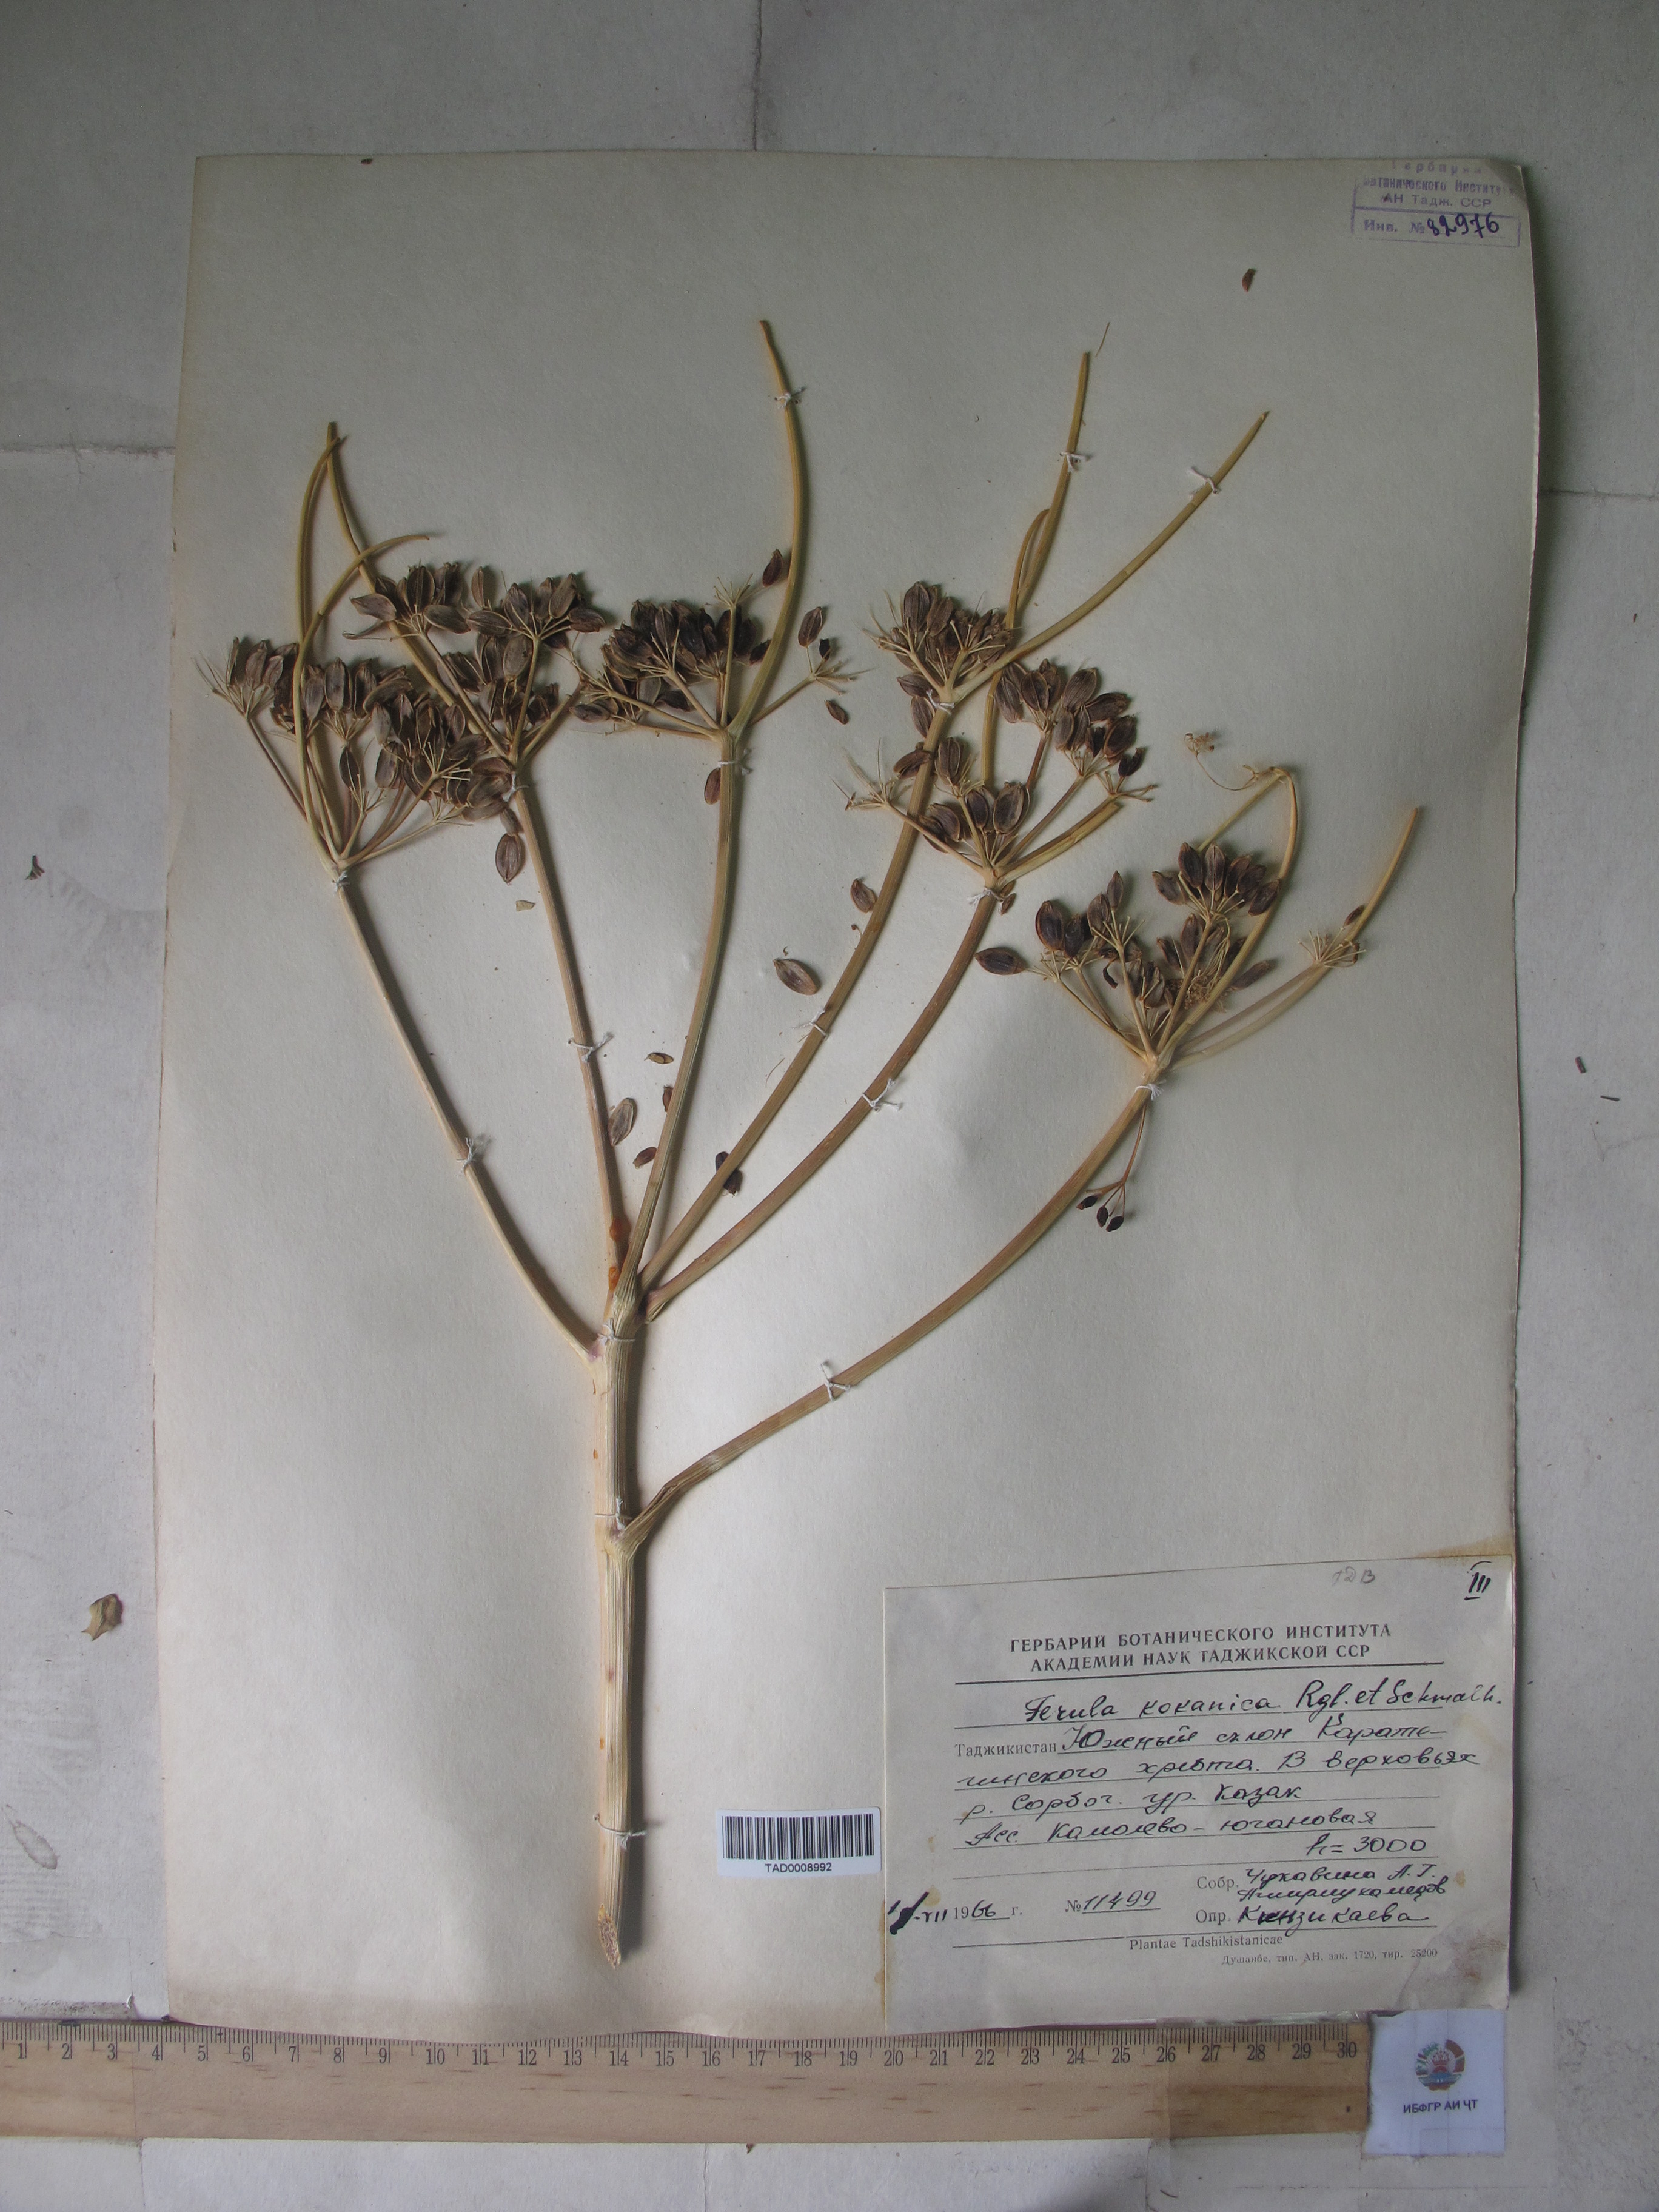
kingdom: Plantae
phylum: Tracheophyta
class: Magnoliopsida
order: Apiales
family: Apiaceae
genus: Ferula
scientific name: Ferula kokanica
